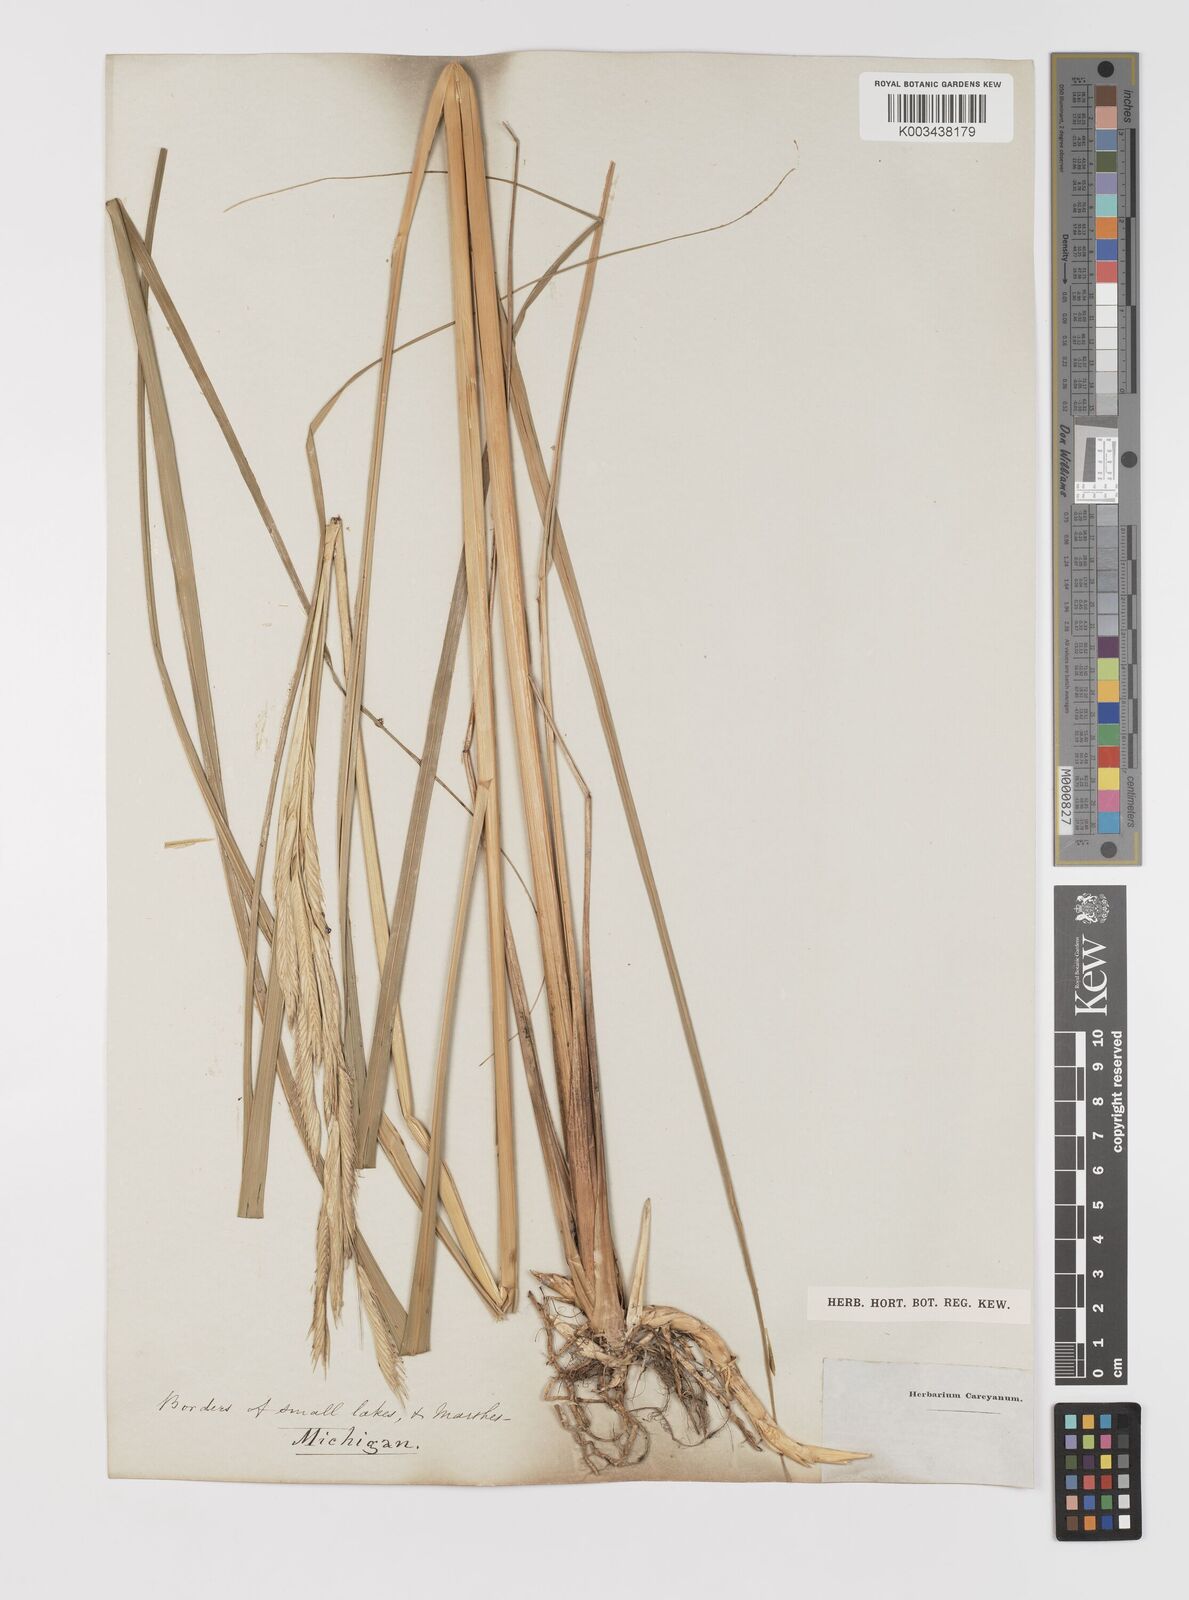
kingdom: Animalia
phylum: Mollusca
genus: Spartina
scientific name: Spartina
